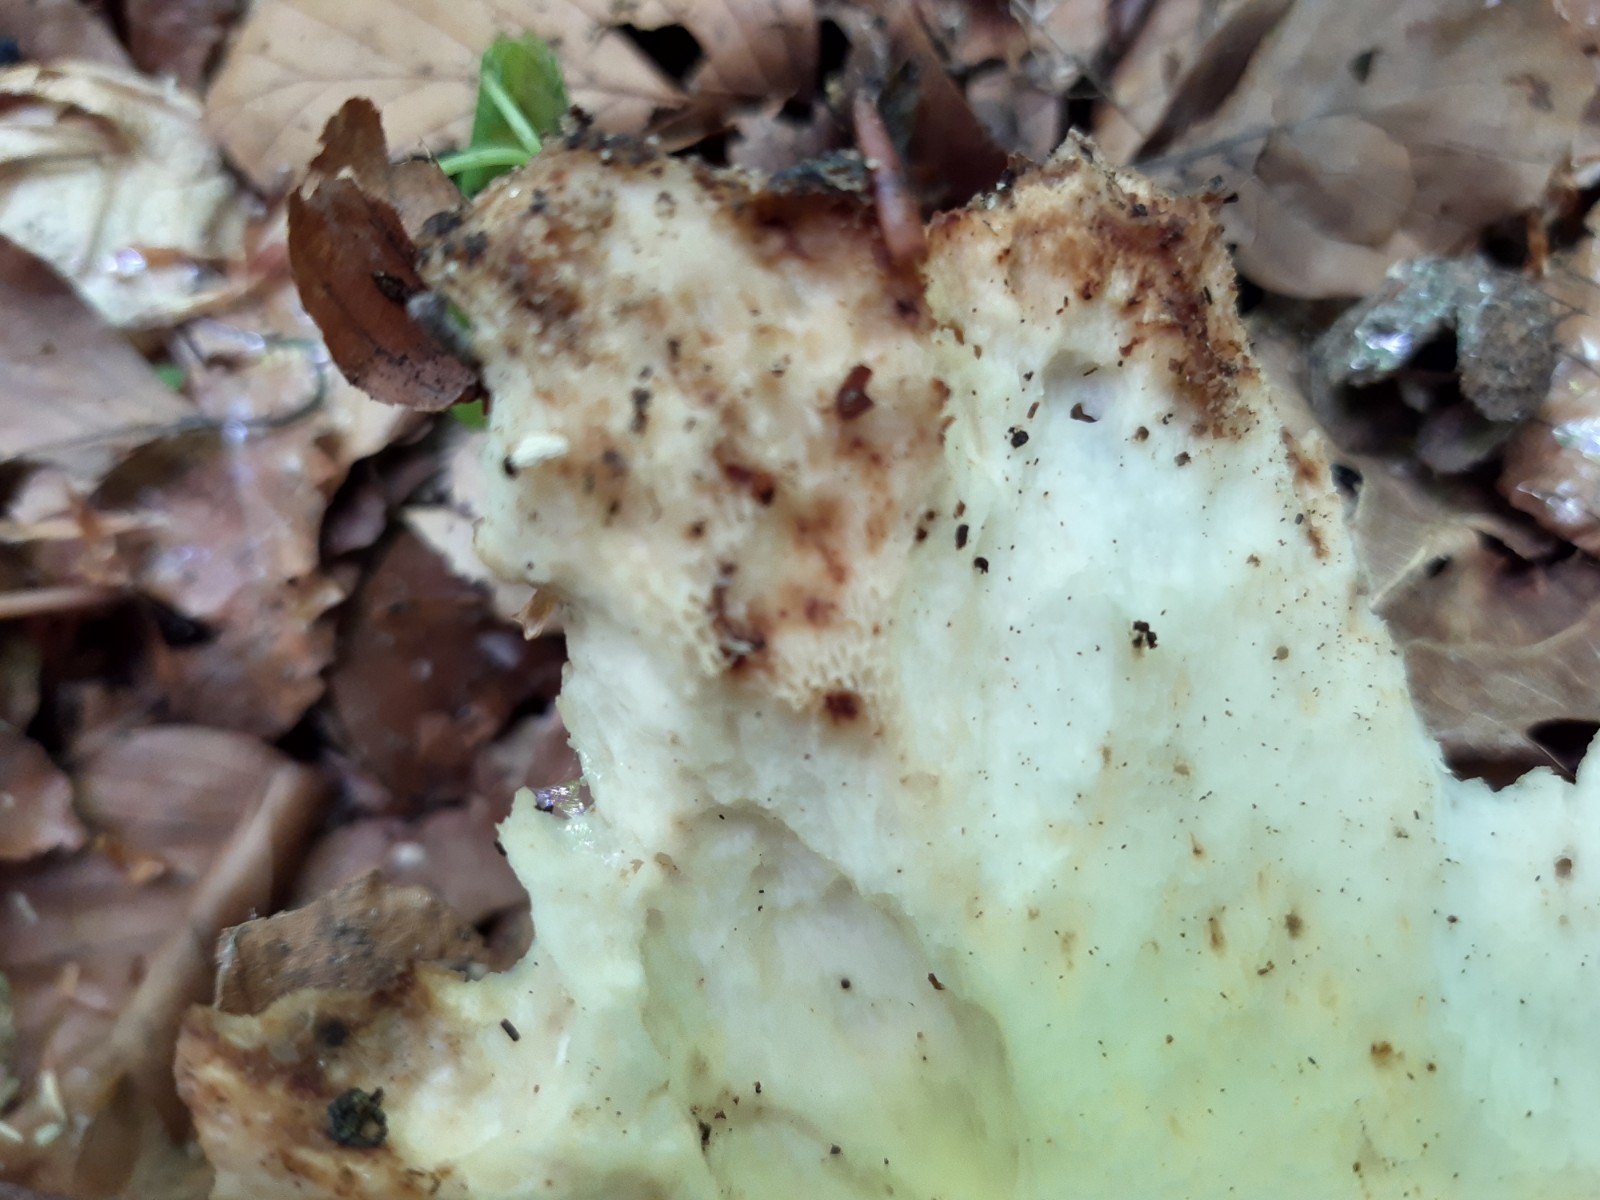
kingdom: Fungi
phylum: Basidiomycota
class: Agaricomycetes
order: Polyporales
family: Polyporaceae
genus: Cerioporus
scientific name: Cerioporus squamosus
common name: skællet stilkporesvamp
